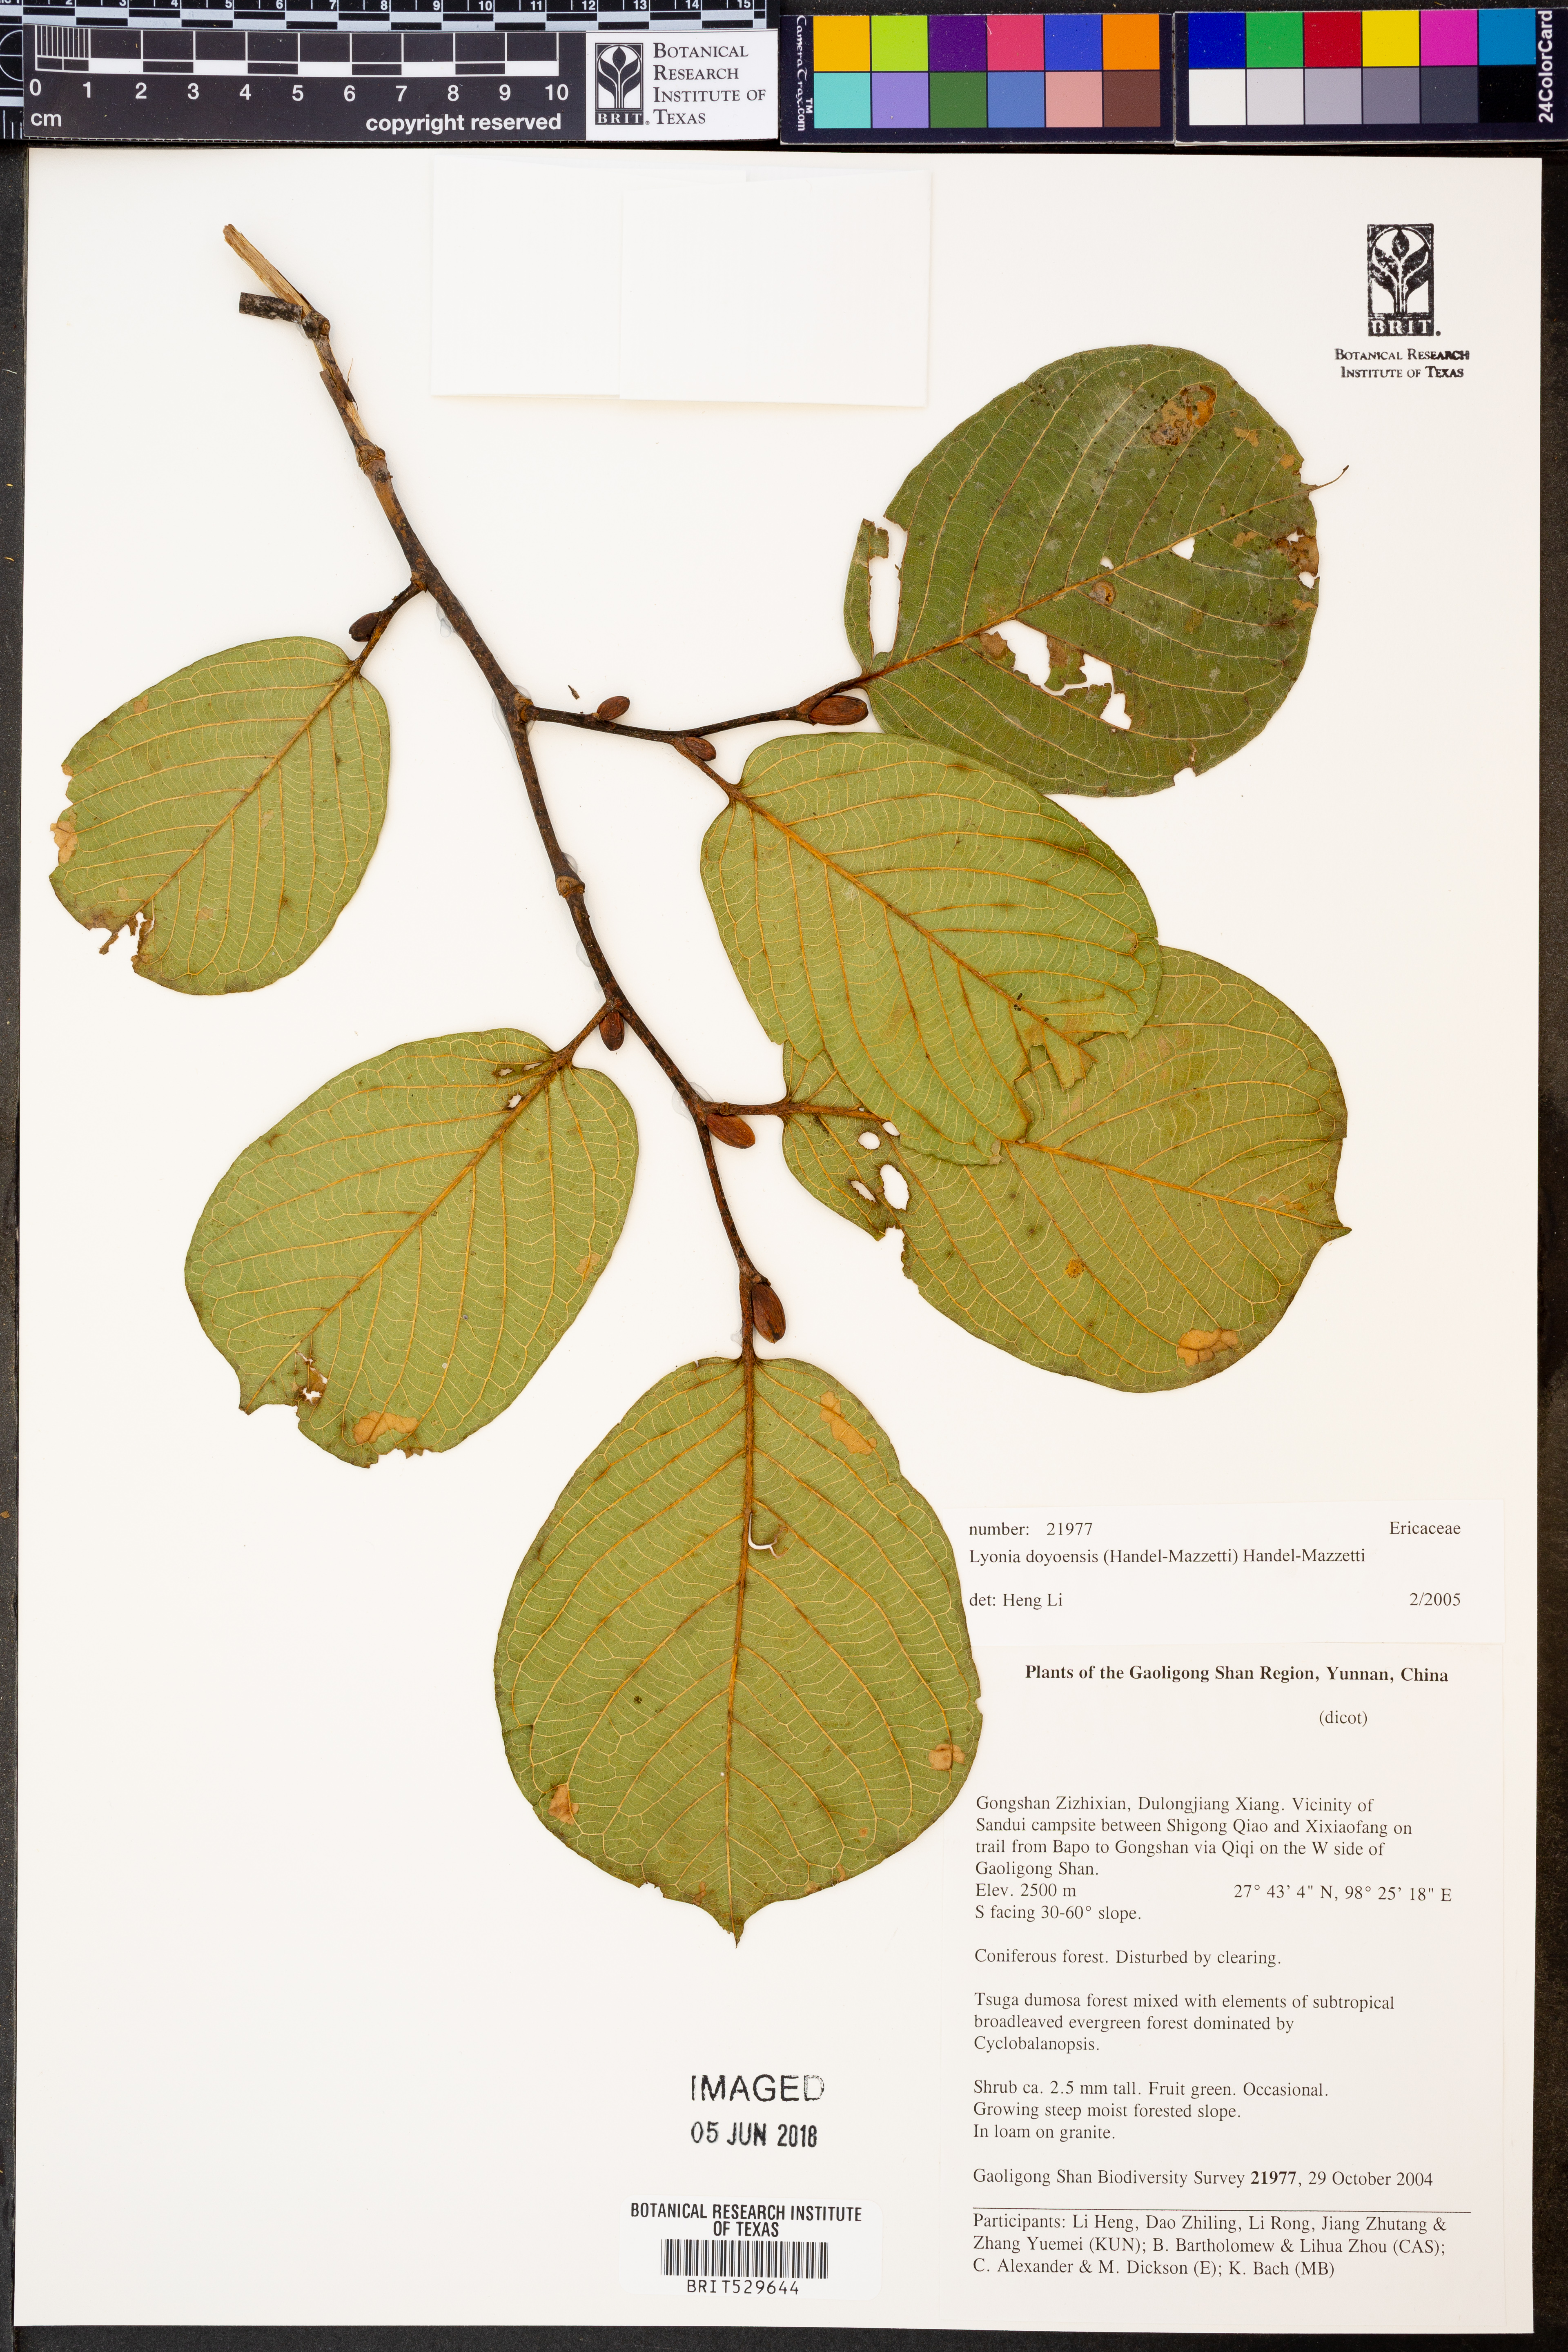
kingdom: Plantae
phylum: Tracheophyta
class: Magnoliopsida
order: Ericales
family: Ericaceae
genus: Lyonia
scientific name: Lyonia doyonensis
